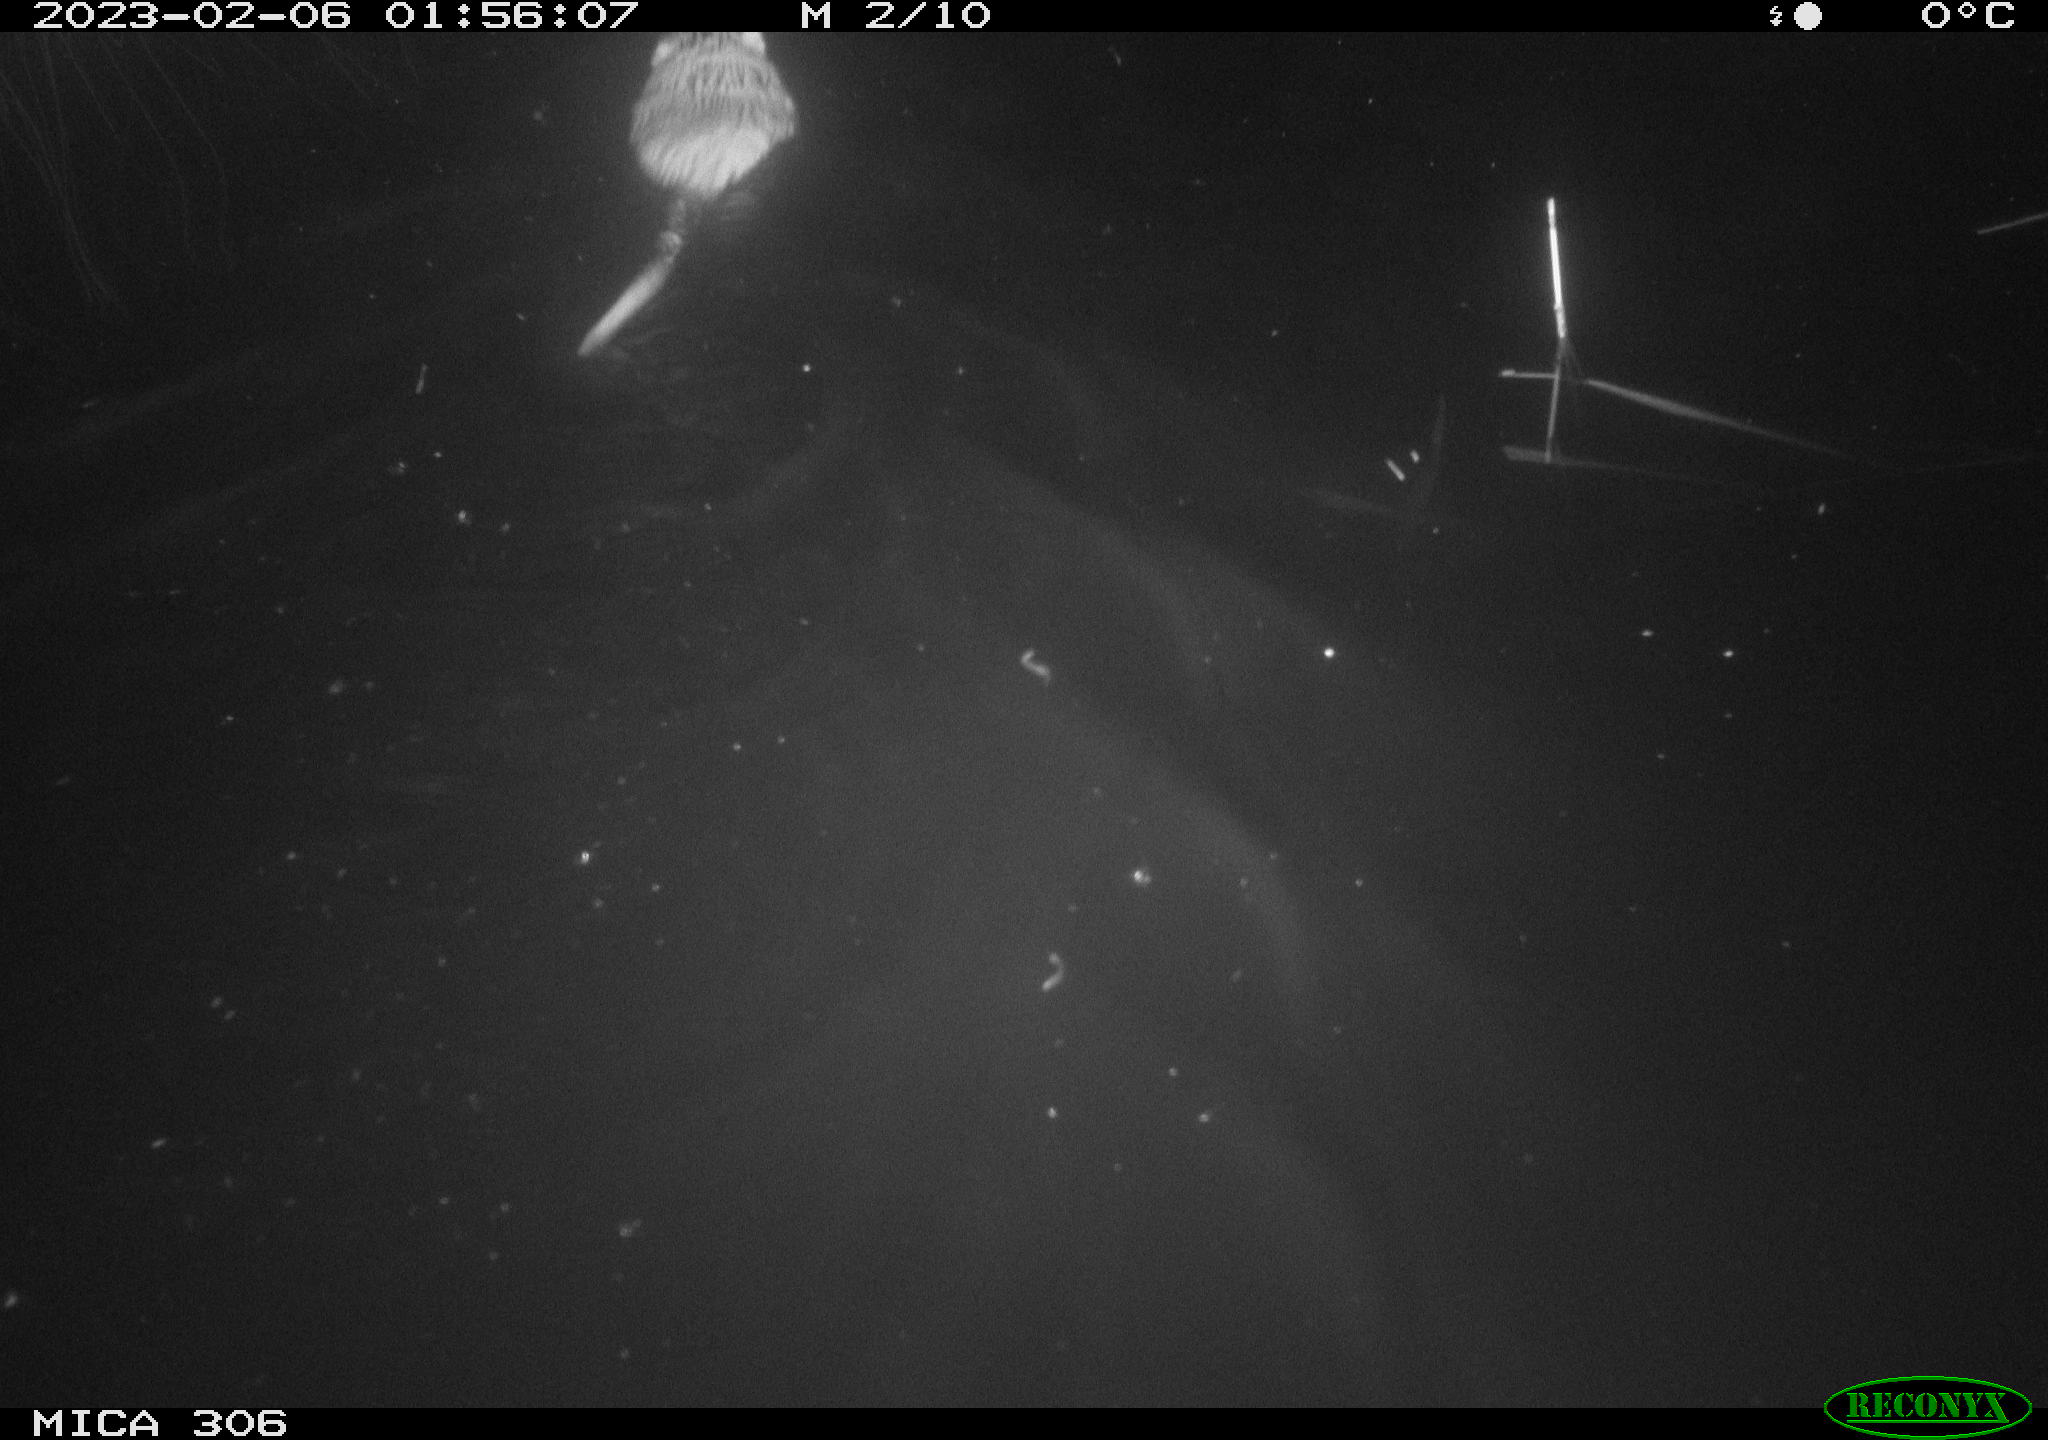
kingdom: Animalia
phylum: Chordata
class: Mammalia
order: Rodentia
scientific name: Rodentia
